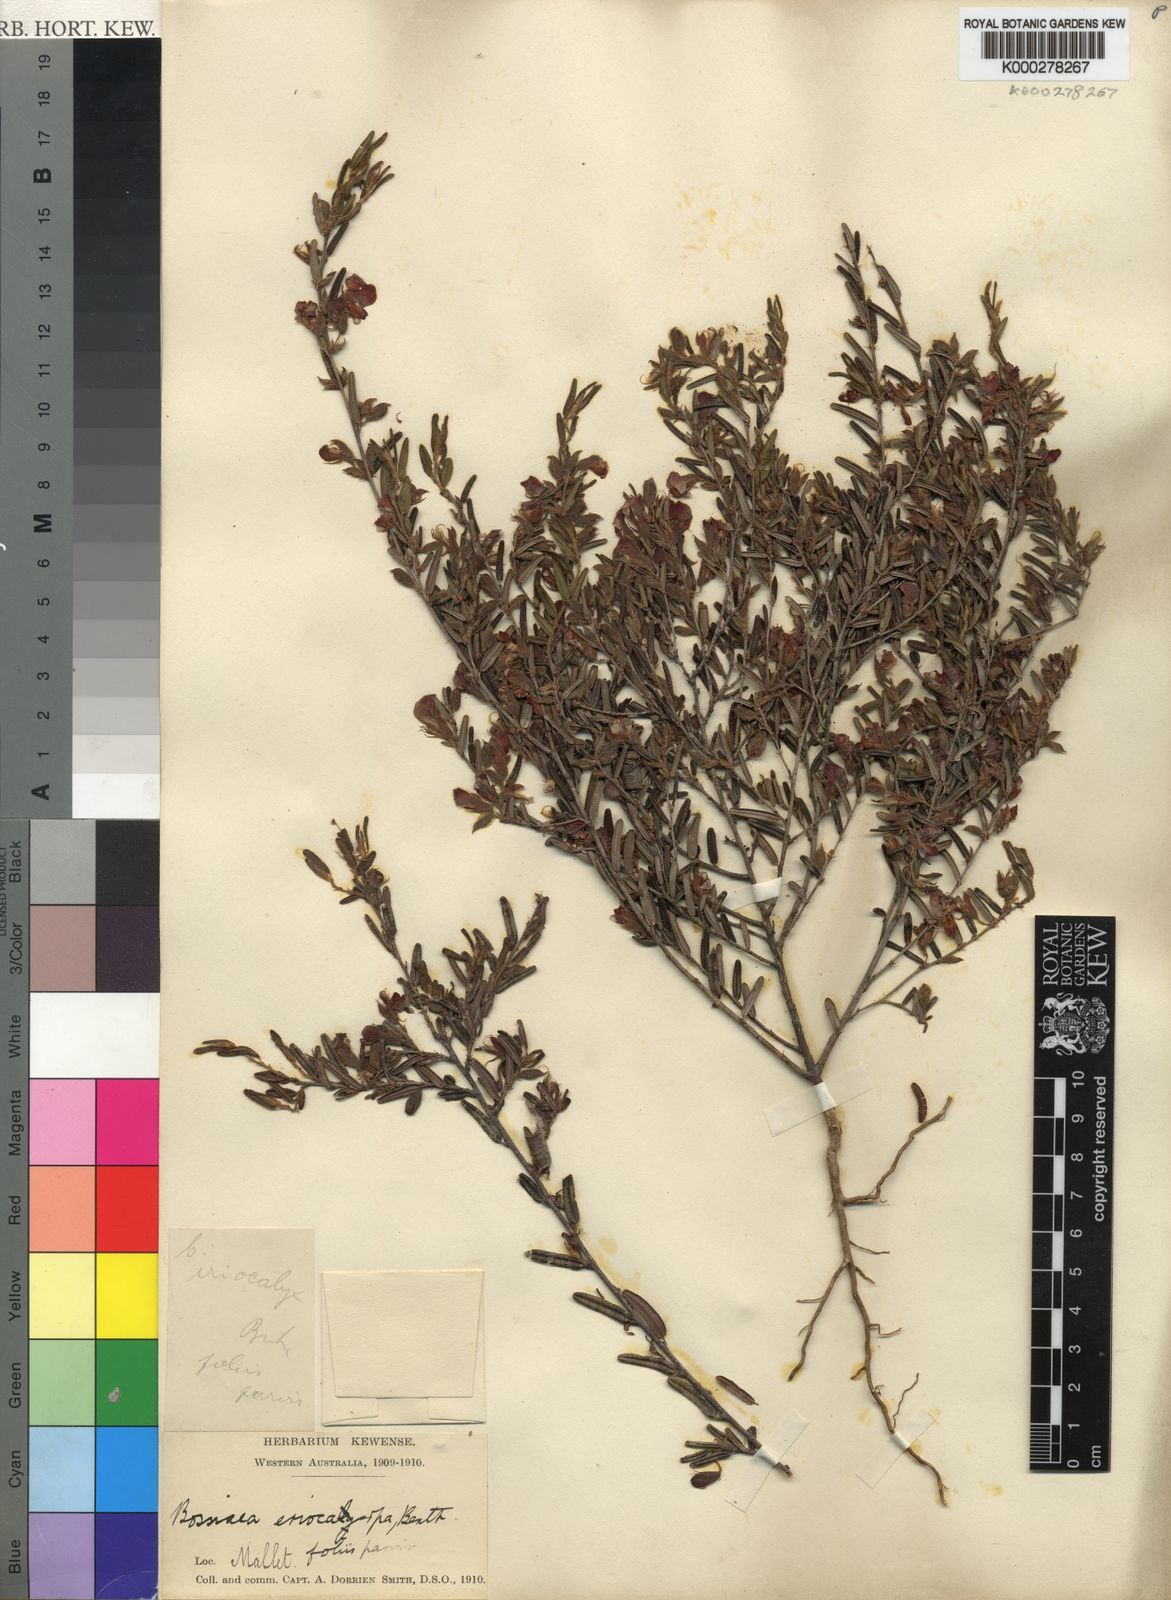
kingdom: Plantae
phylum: Tracheophyta
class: Magnoliopsida
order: Fabales
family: Fabaceae
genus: Bossiaea
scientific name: Bossiaea eriocarpa
